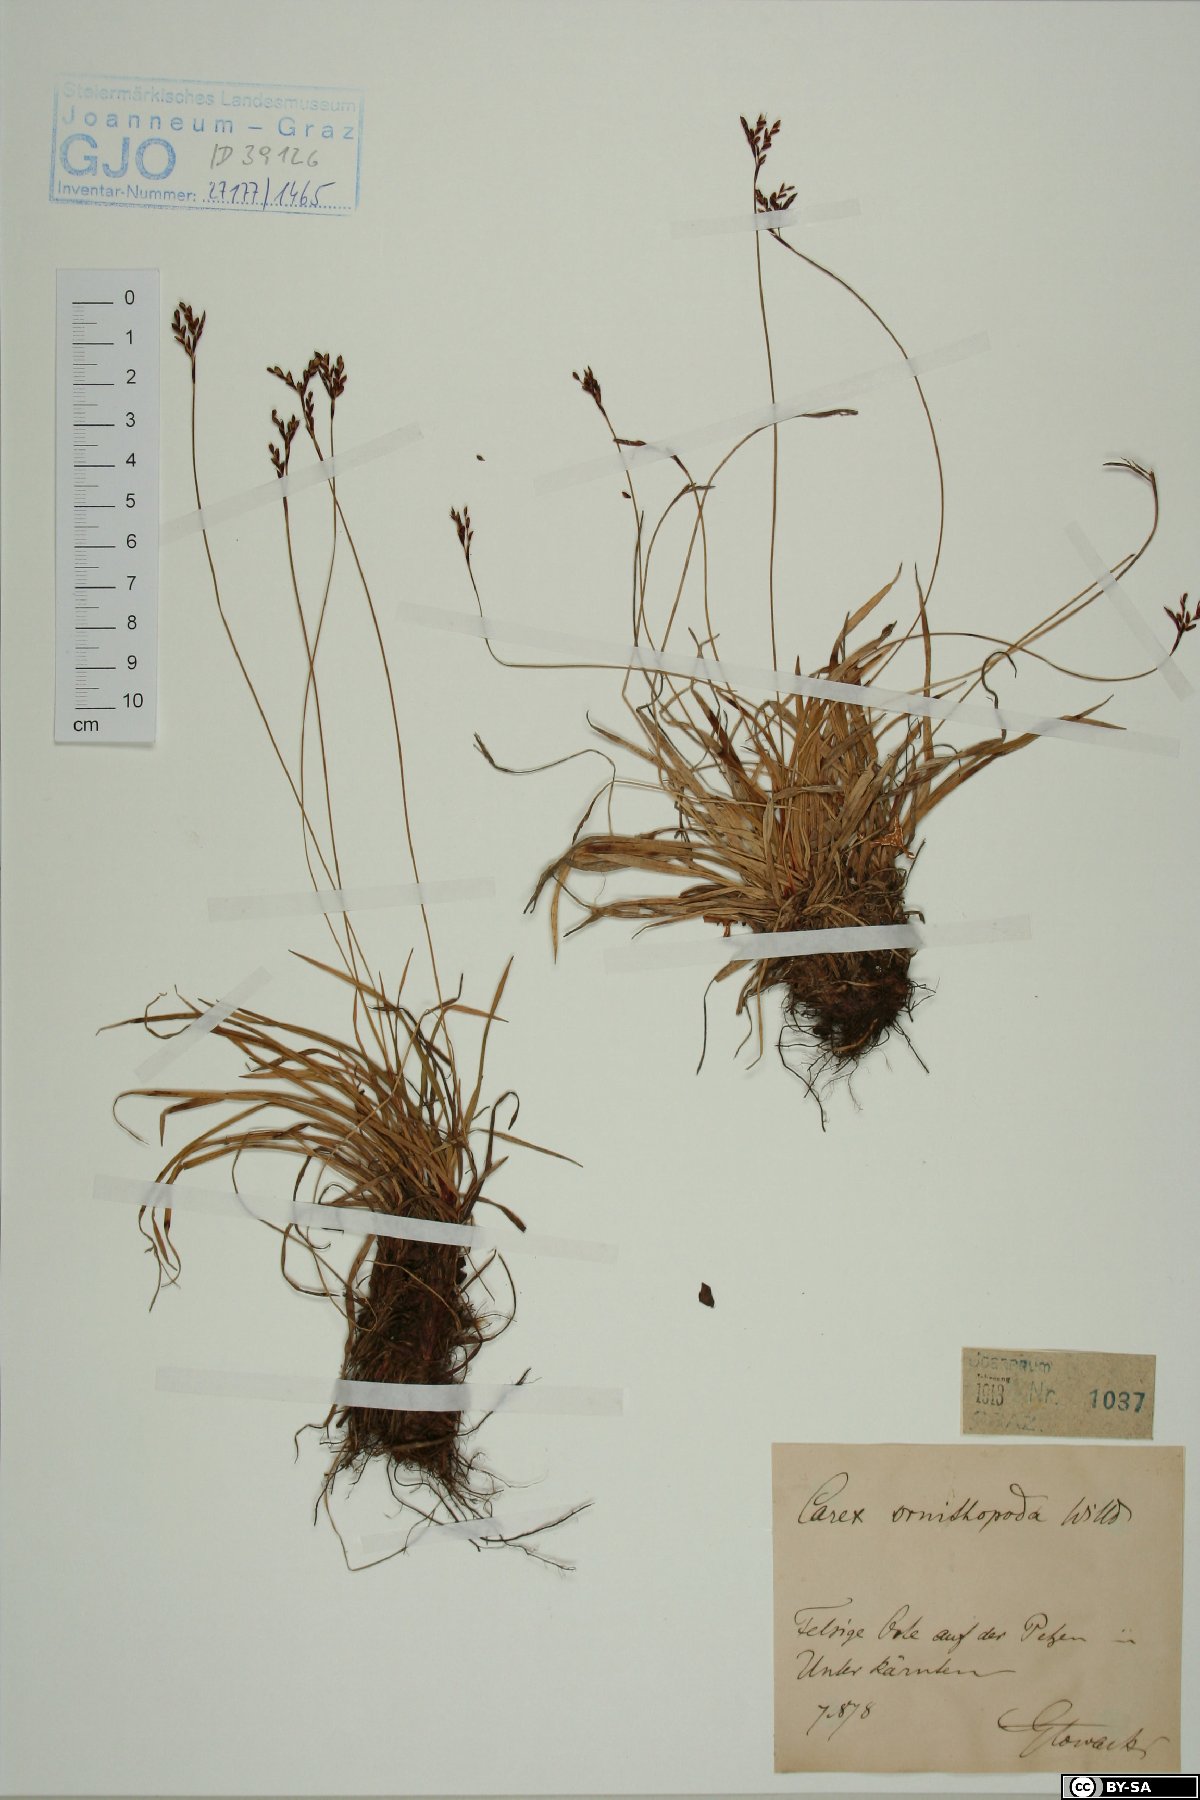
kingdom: Plantae
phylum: Tracheophyta
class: Liliopsida
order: Poales
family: Cyperaceae
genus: Carex
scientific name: Carex ornithopoda
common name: Bird's-foot sedge
